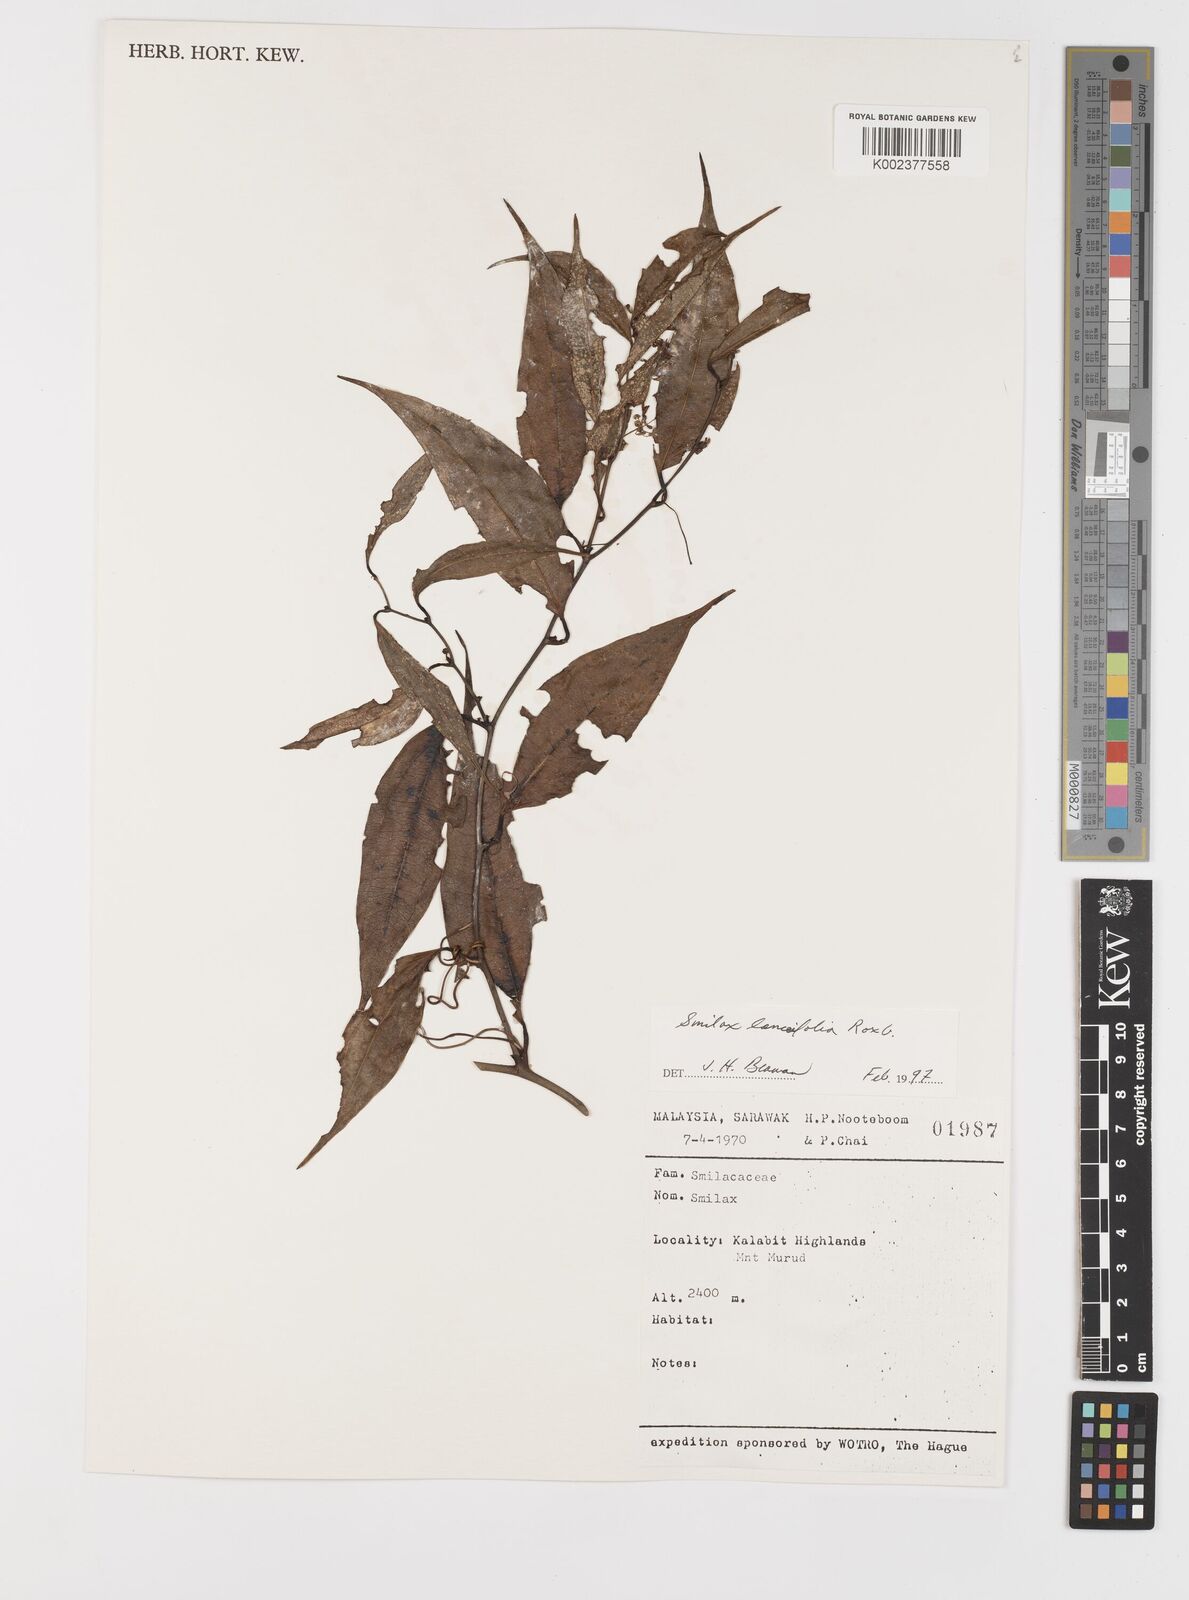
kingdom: Plantae
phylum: Tracheophyta
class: Liliopsida
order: Liliales
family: Smilacaceae
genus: Smilax
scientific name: Smilax lanceifolia
